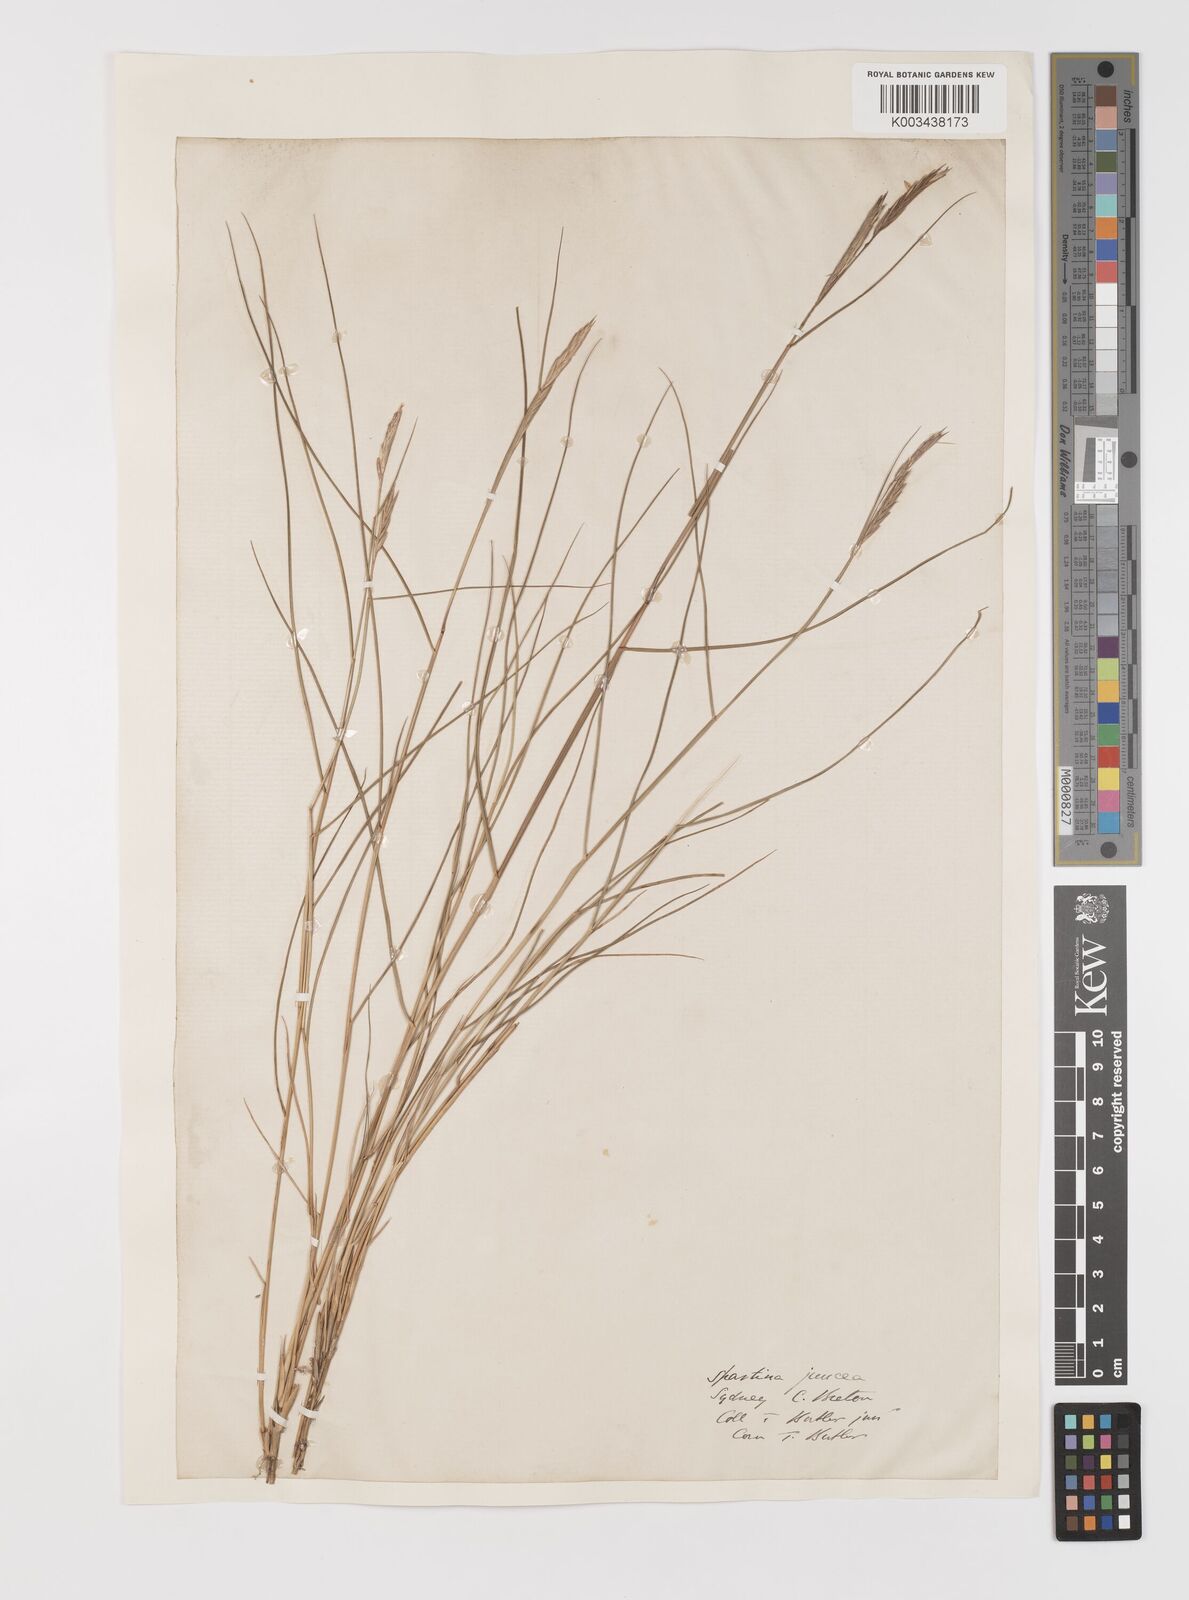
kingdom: Plantae
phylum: Tracheophyta
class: Liliopsida
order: Poales
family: Poaceae
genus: Sporobolus
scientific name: Sporobolus pumilus
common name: Highwater grass
